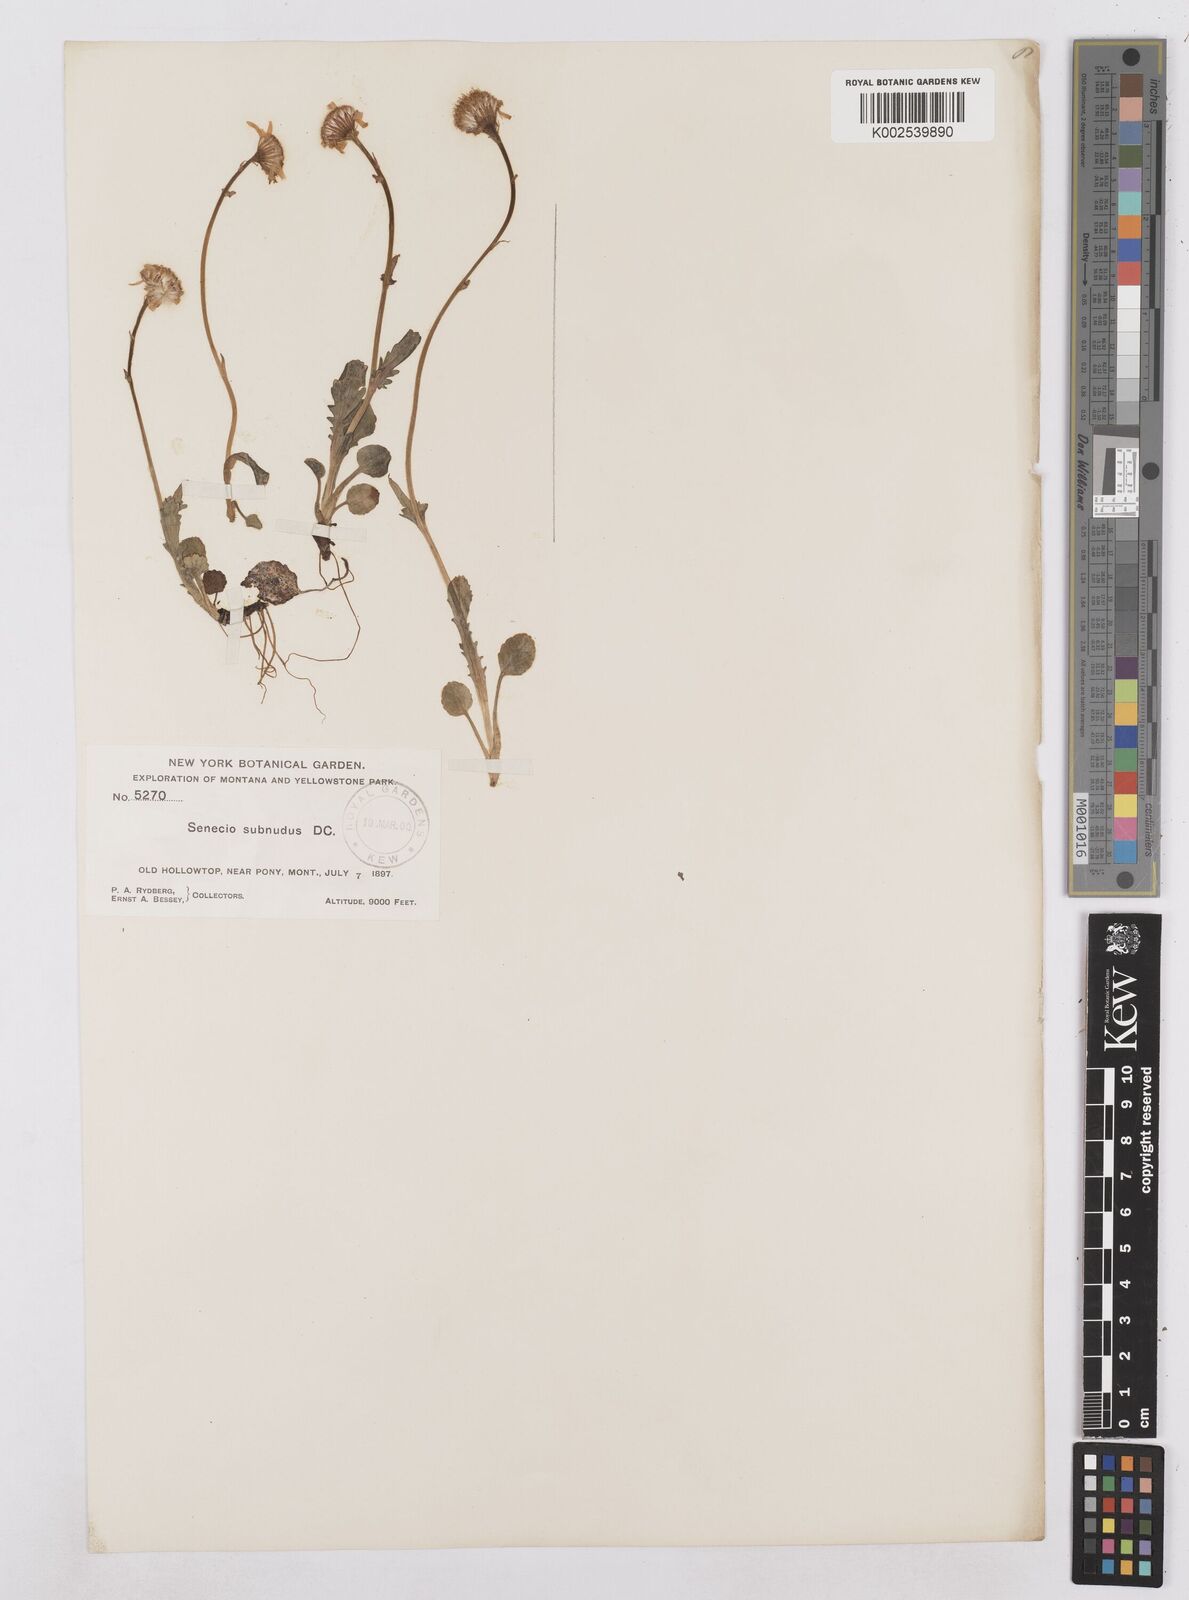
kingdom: Plantae
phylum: Tracheophyta
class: Magnoliopsida
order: Asterales
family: Asteraceae
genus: Packera
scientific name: Packera aurea
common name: Golden groundsel
